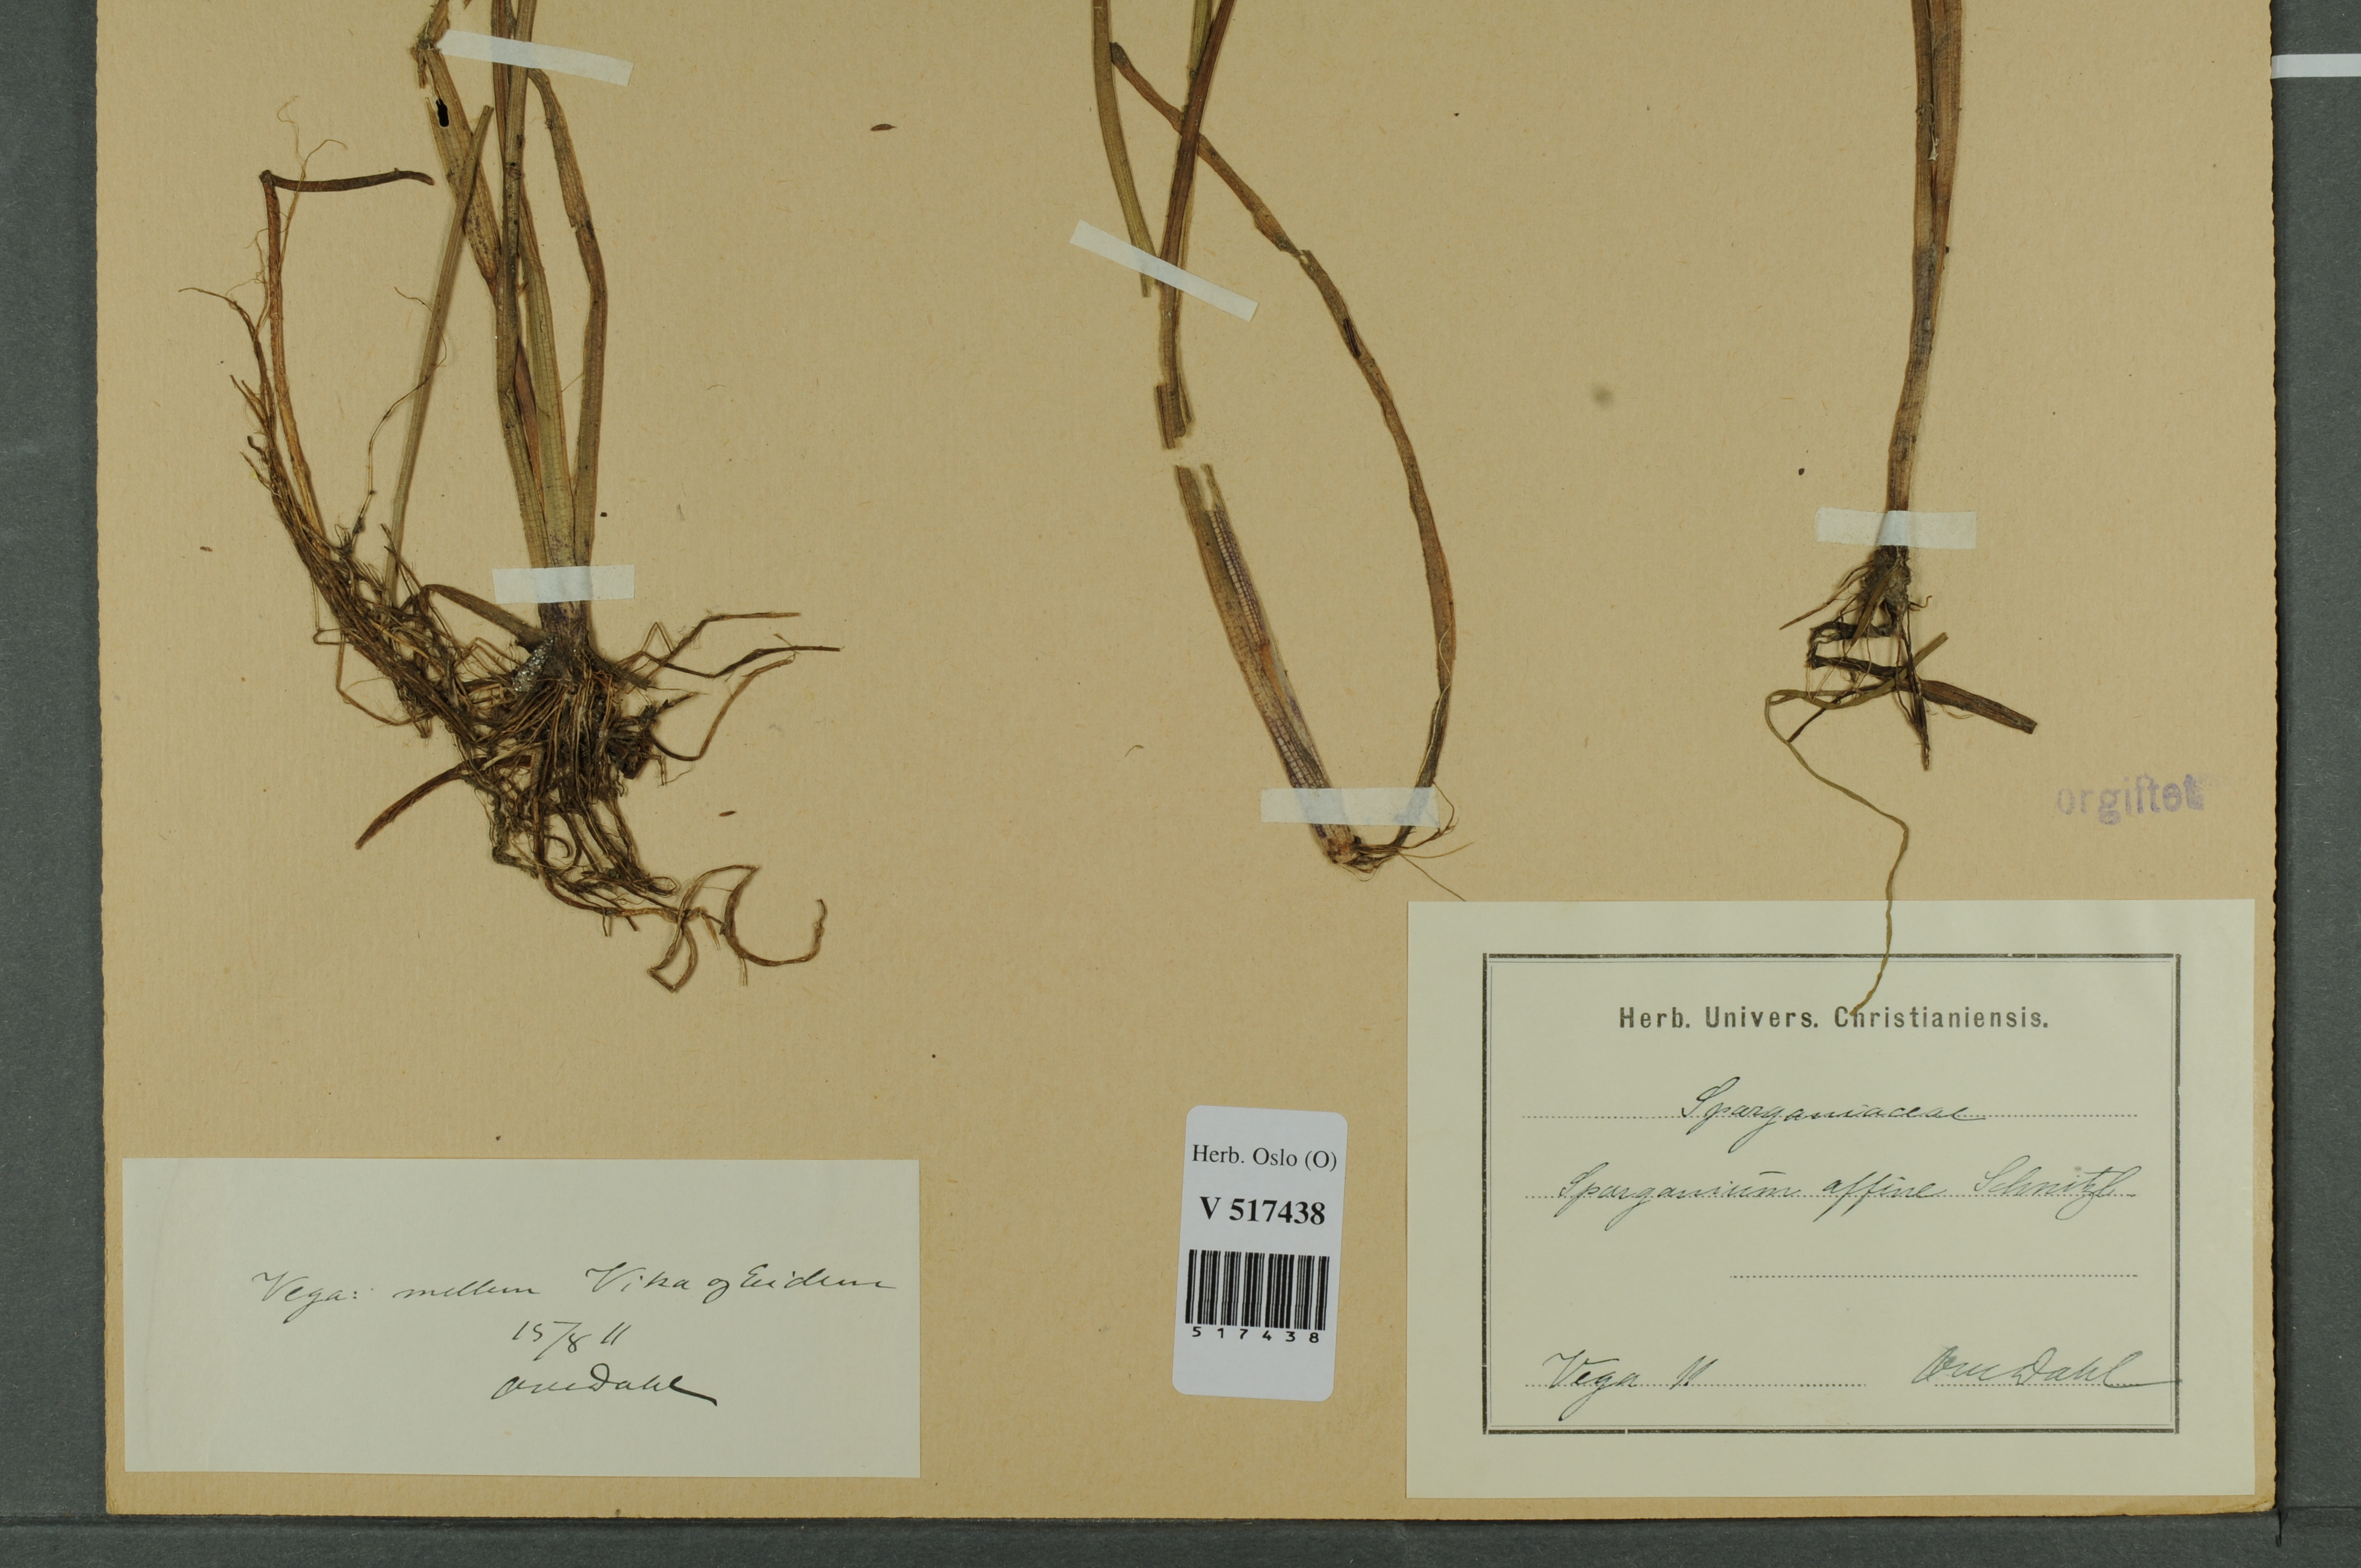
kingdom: Plantae
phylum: Tracheophyta
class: Liliopsida
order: Poales
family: Typhaceae
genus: Sparganium
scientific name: Sparganium angustifolium
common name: Floating bur-reed
